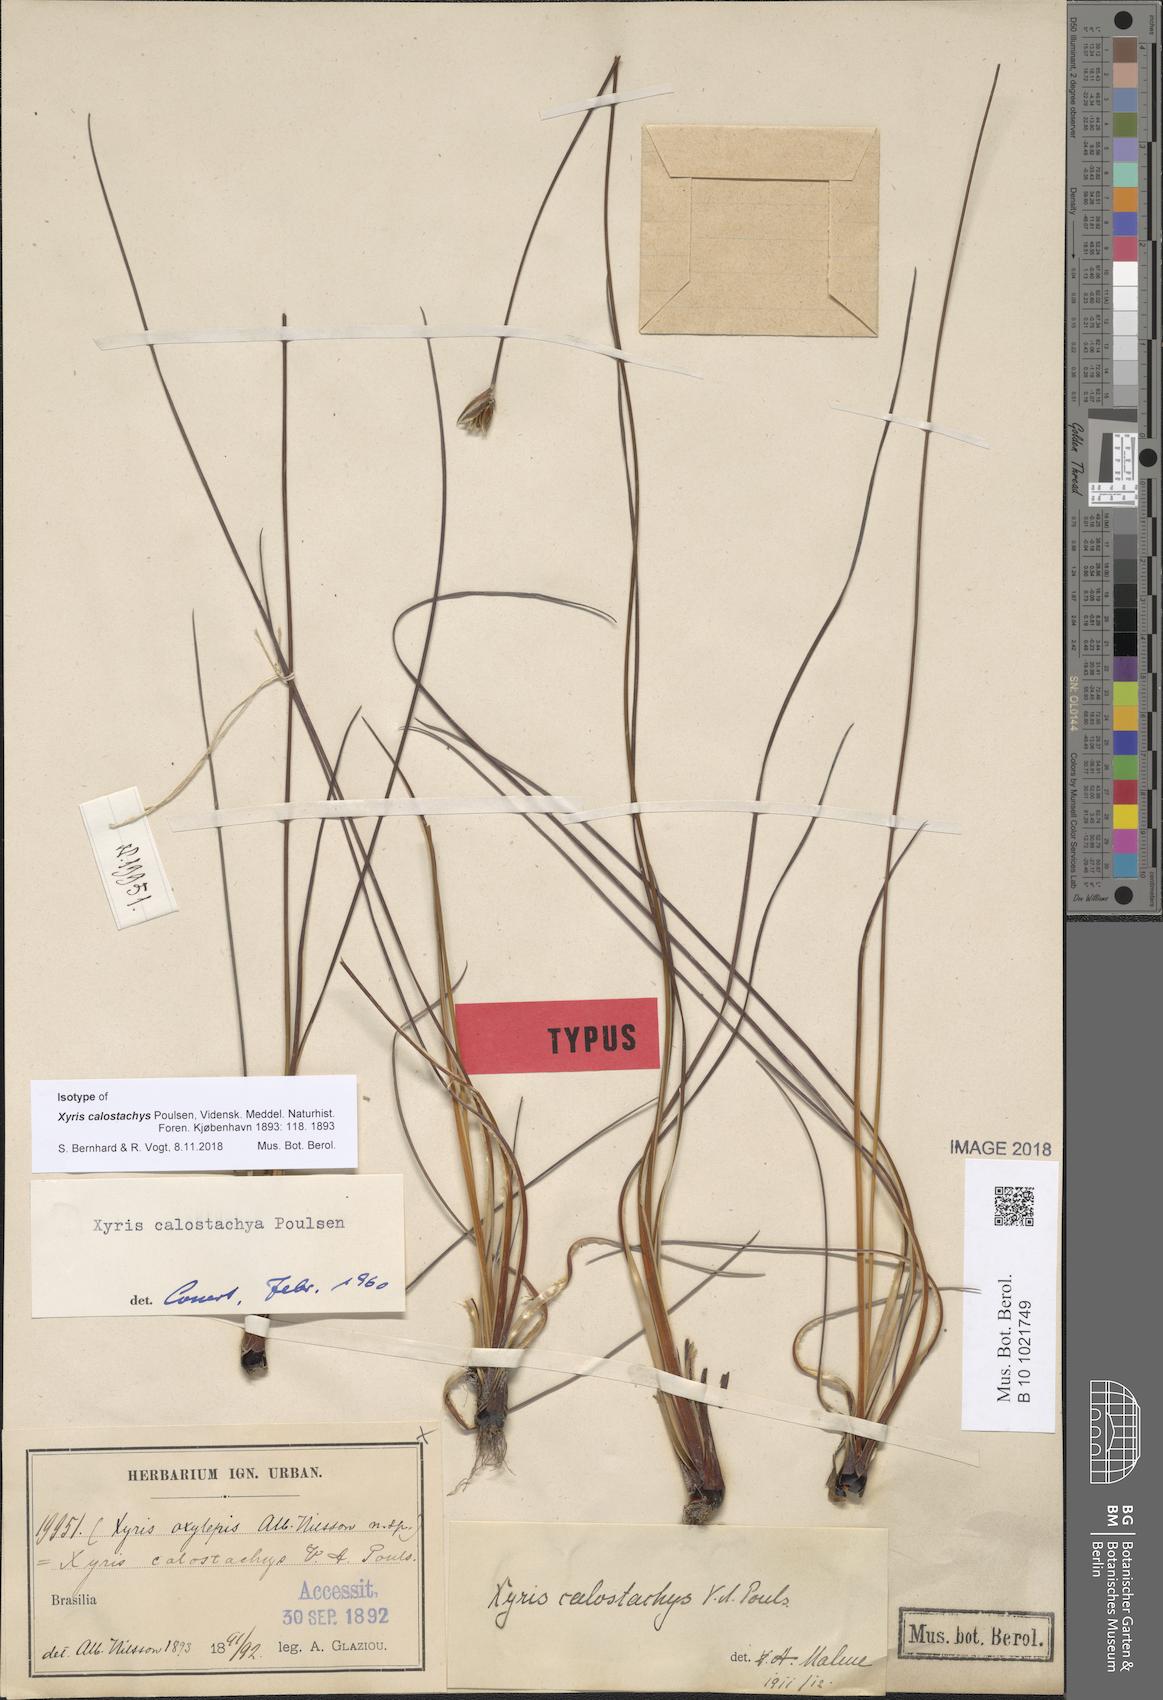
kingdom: Plantae
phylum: Tracheophyta
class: Liliopsida
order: Poales
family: Xyridaceae
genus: Xyris
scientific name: Xyris calostachys
